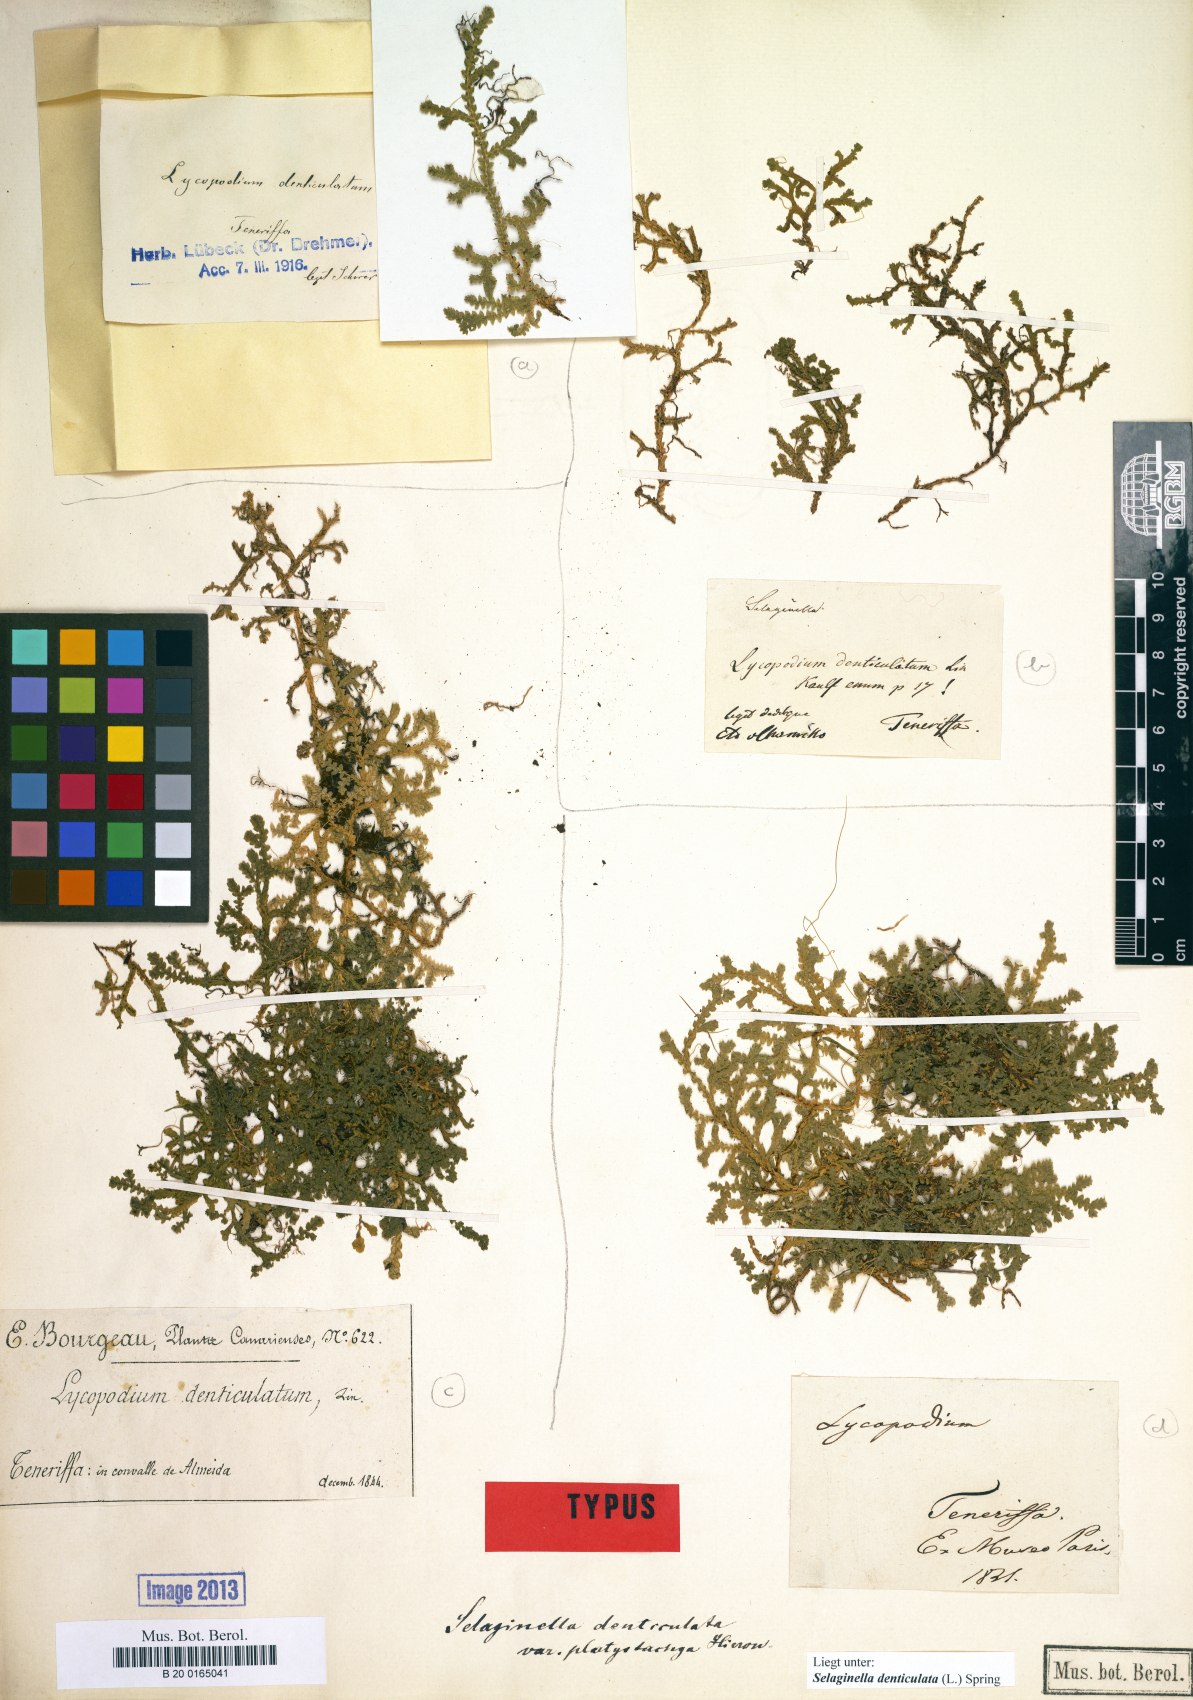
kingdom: Plantae
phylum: Tracheophyta
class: Lycopodiopsida
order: Selaginellales
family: Selaginellaceae
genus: Selaginella
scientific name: Selaginella denticulata
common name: Toothed-leaved clubmoss
